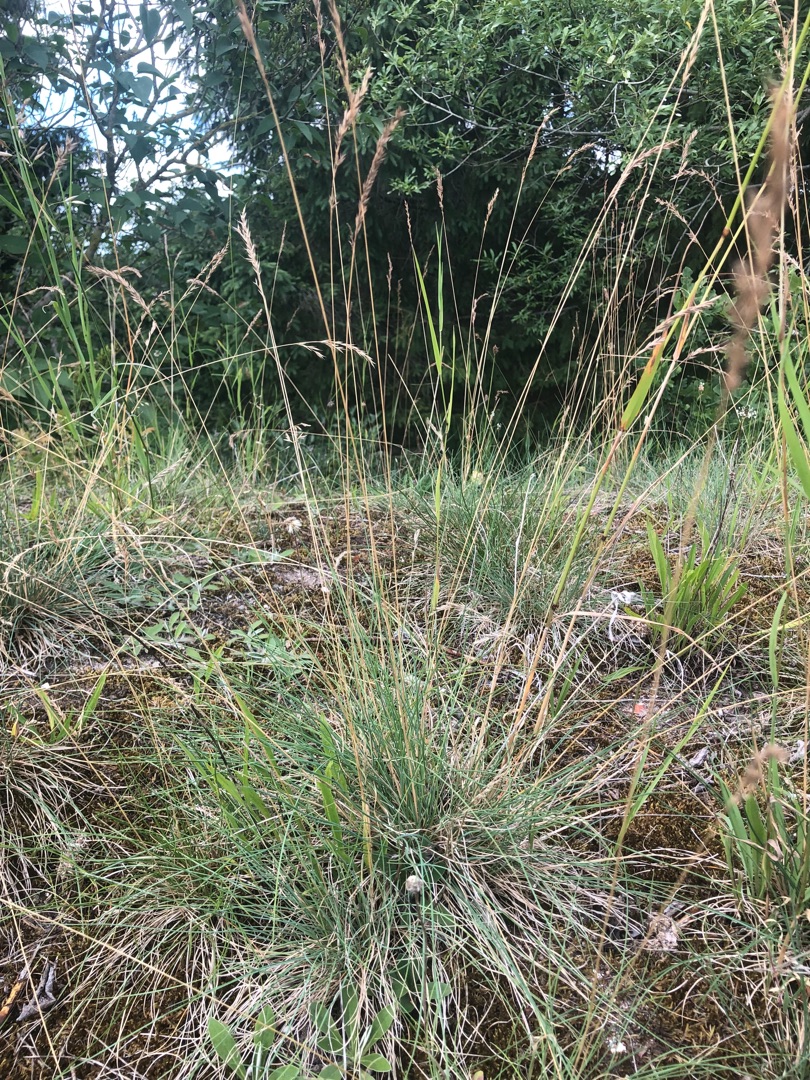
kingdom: Plantae
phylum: Tracheophyta
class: Liliopsida
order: Poales
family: Poaceae
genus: Festuca
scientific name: Festuca ovina
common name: Fåre-svingel
